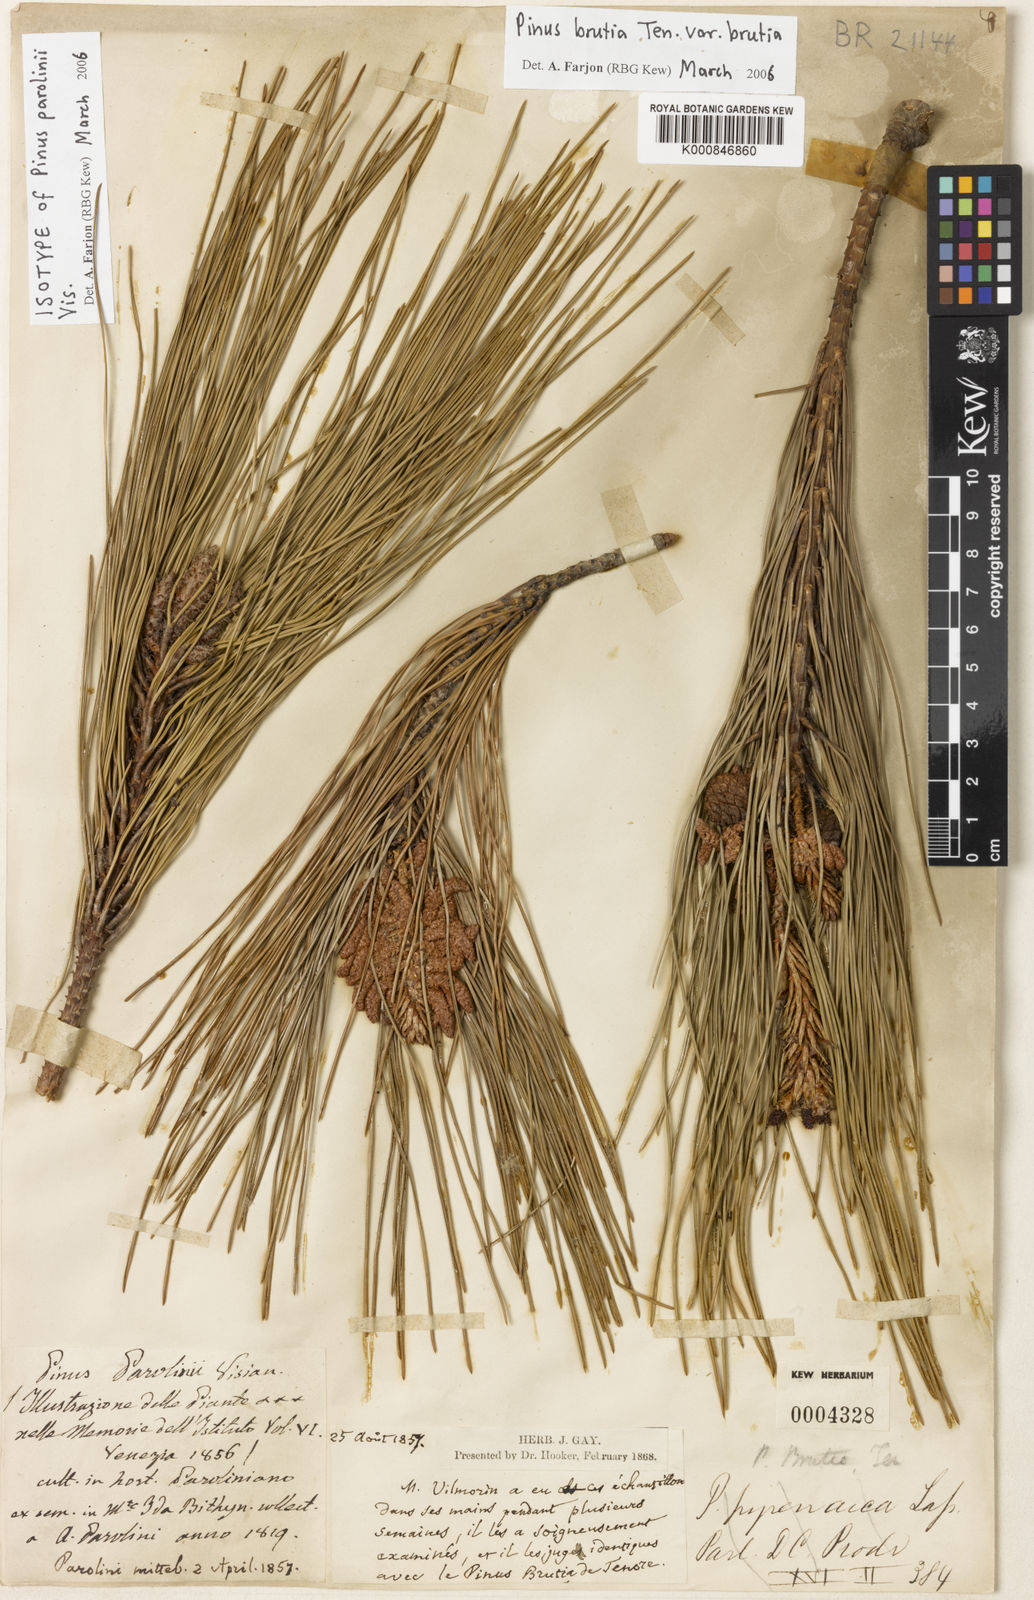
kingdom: Plantae
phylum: Tracheophyta
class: Pinopsida
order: Pinales
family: Pinaceae
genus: Pinus
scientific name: Pinus brutia
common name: Turkish pine
